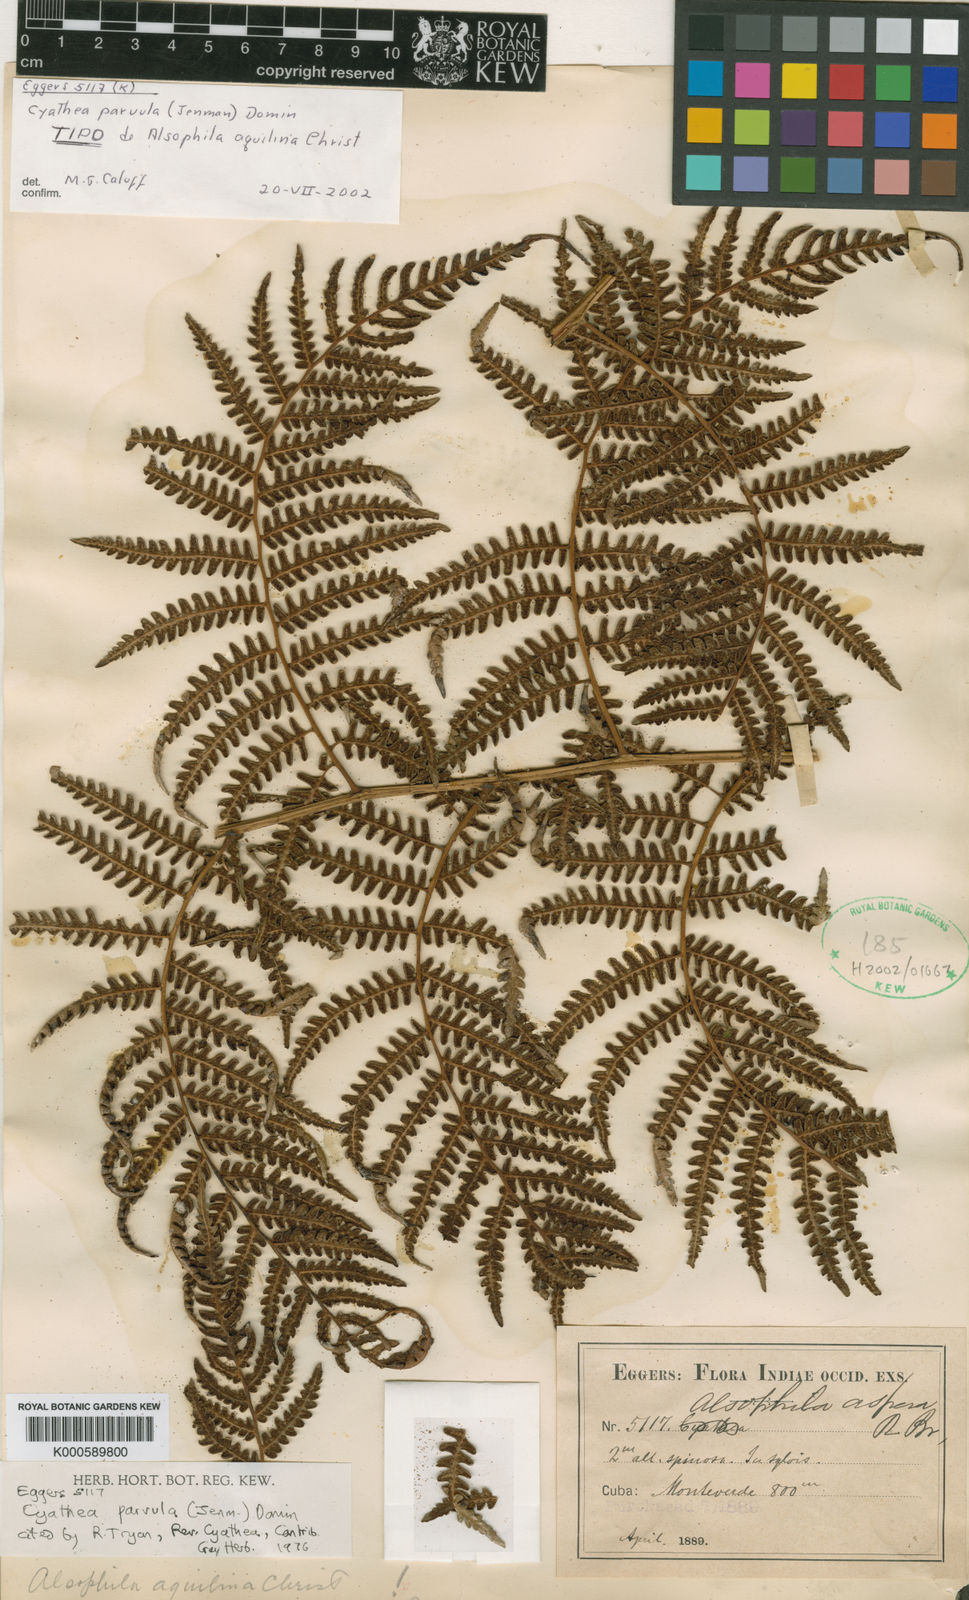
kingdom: Plantae
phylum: Tracheophyta
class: Polypodiopsida
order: Cyatheales
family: Cyatheaceae
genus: Cyathea
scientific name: Cyathea
